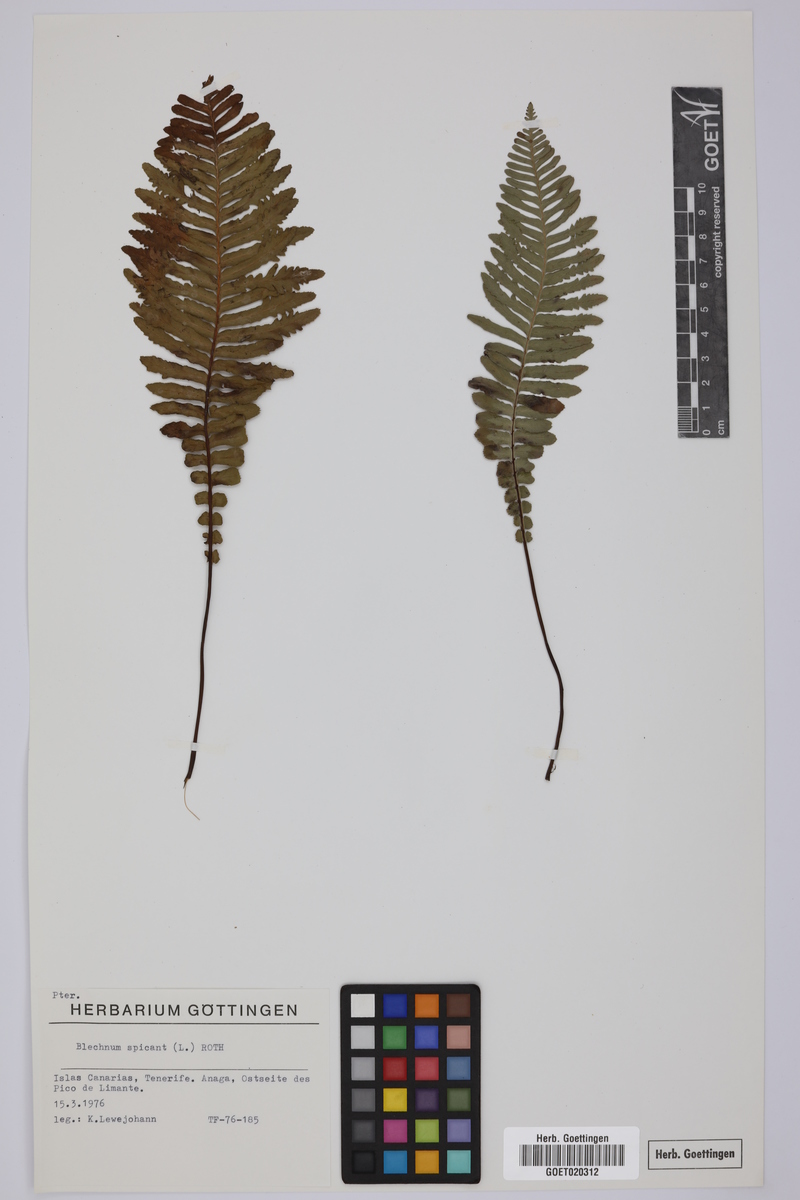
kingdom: Plantae
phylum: Tracheophyta
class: Polypodiopsida
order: Polypodiales
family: Blechnaceae
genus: Struthiopteris
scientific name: Struthiopteris spicant
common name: Deer fern
